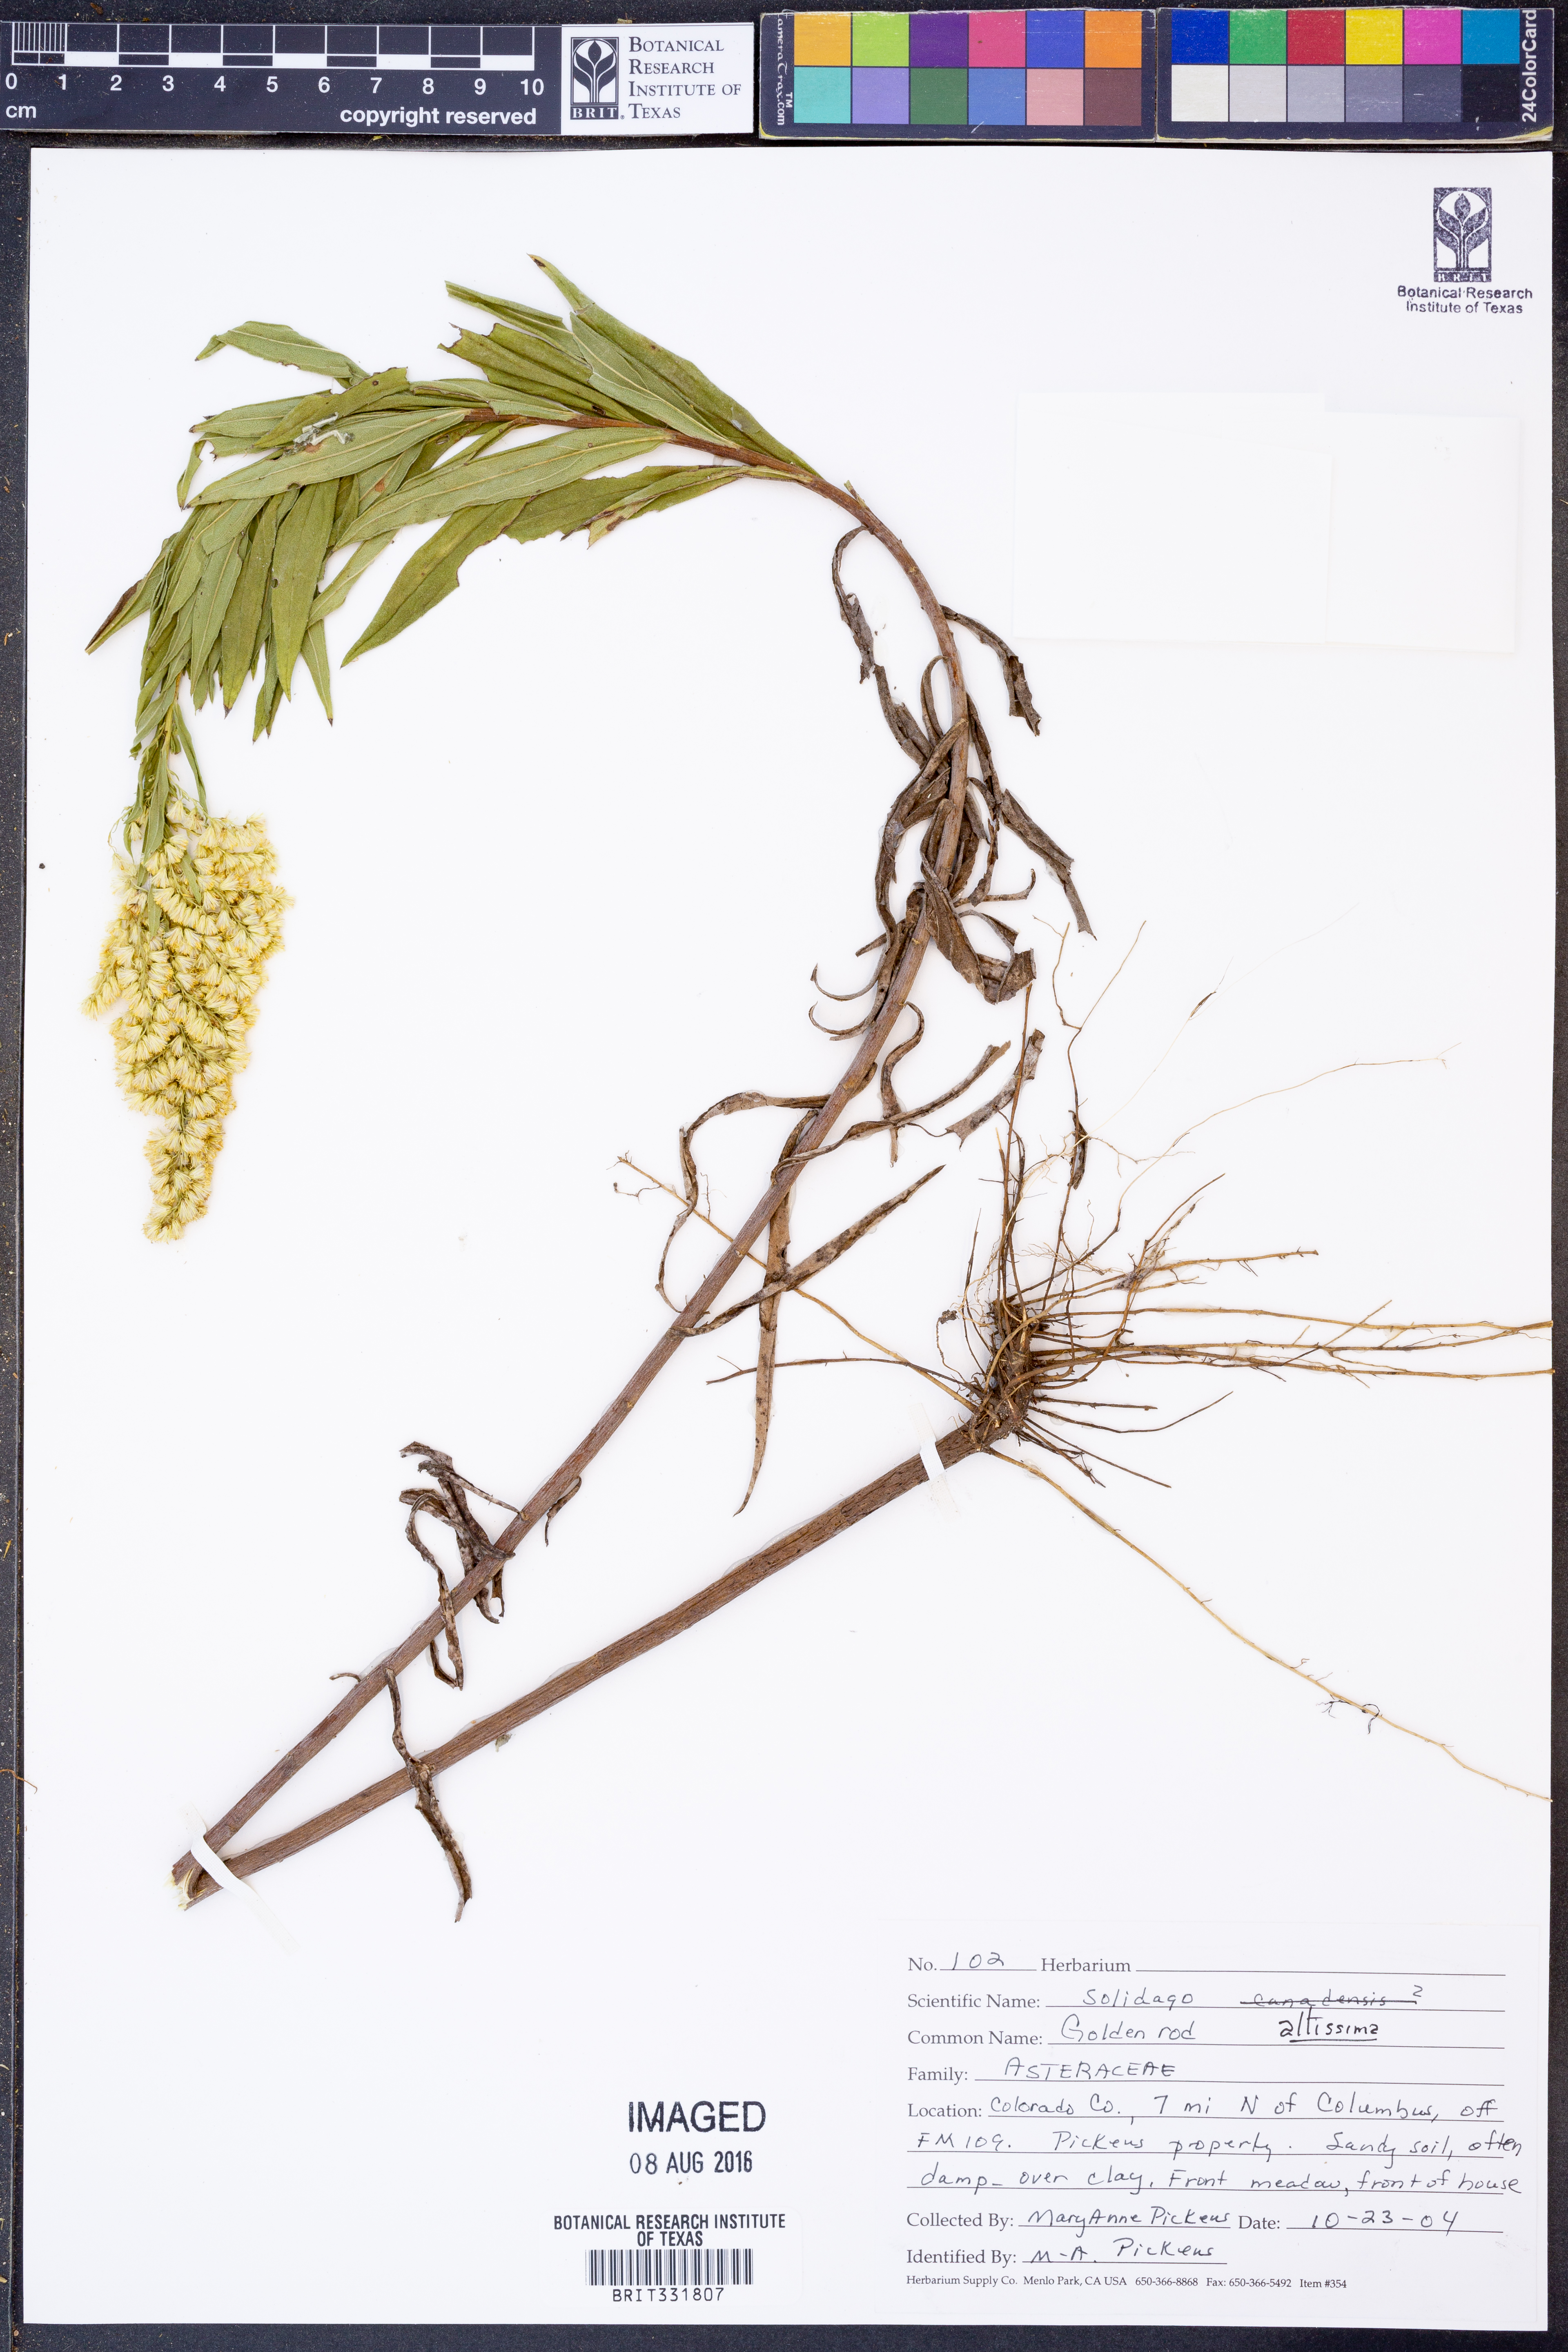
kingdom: Plantae
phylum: Tracheophyta
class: Magnoliopsida
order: Asterales
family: Asteraceae
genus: Solidago
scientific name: Solidago altissima
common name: Late goldenrod
